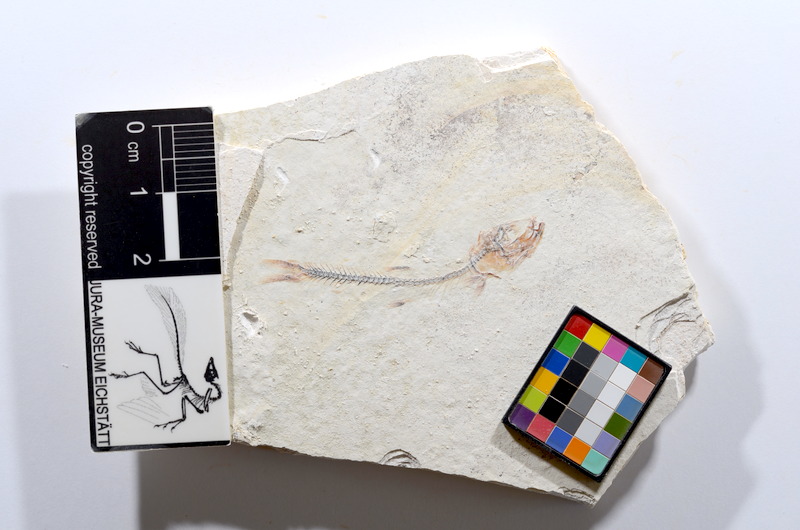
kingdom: Animalia
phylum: Chordata
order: Salmoniformes
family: Orthogonikleithridae
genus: Orthogonikleithrus
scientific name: Orthogonikleithrus hoelli
